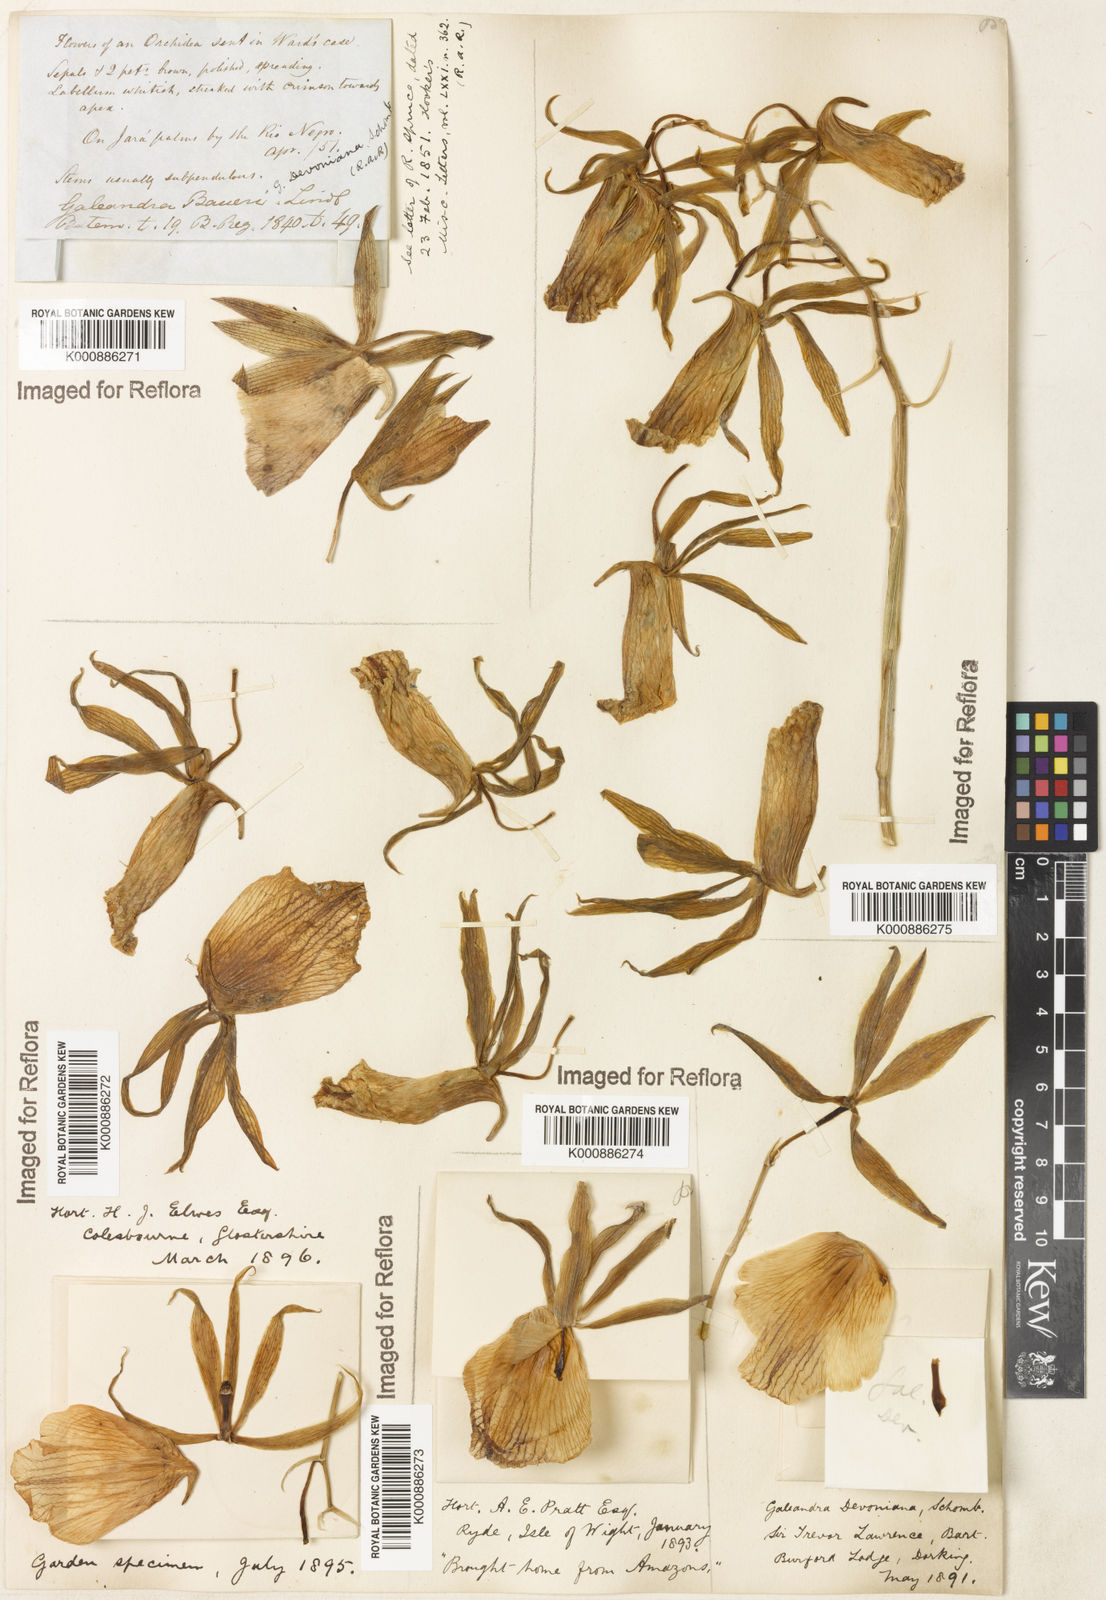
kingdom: Plantae
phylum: Tracheophyta
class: Liliopsida
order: Asparagales
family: Orchidaceae
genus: Galeandra
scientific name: Galeandra
